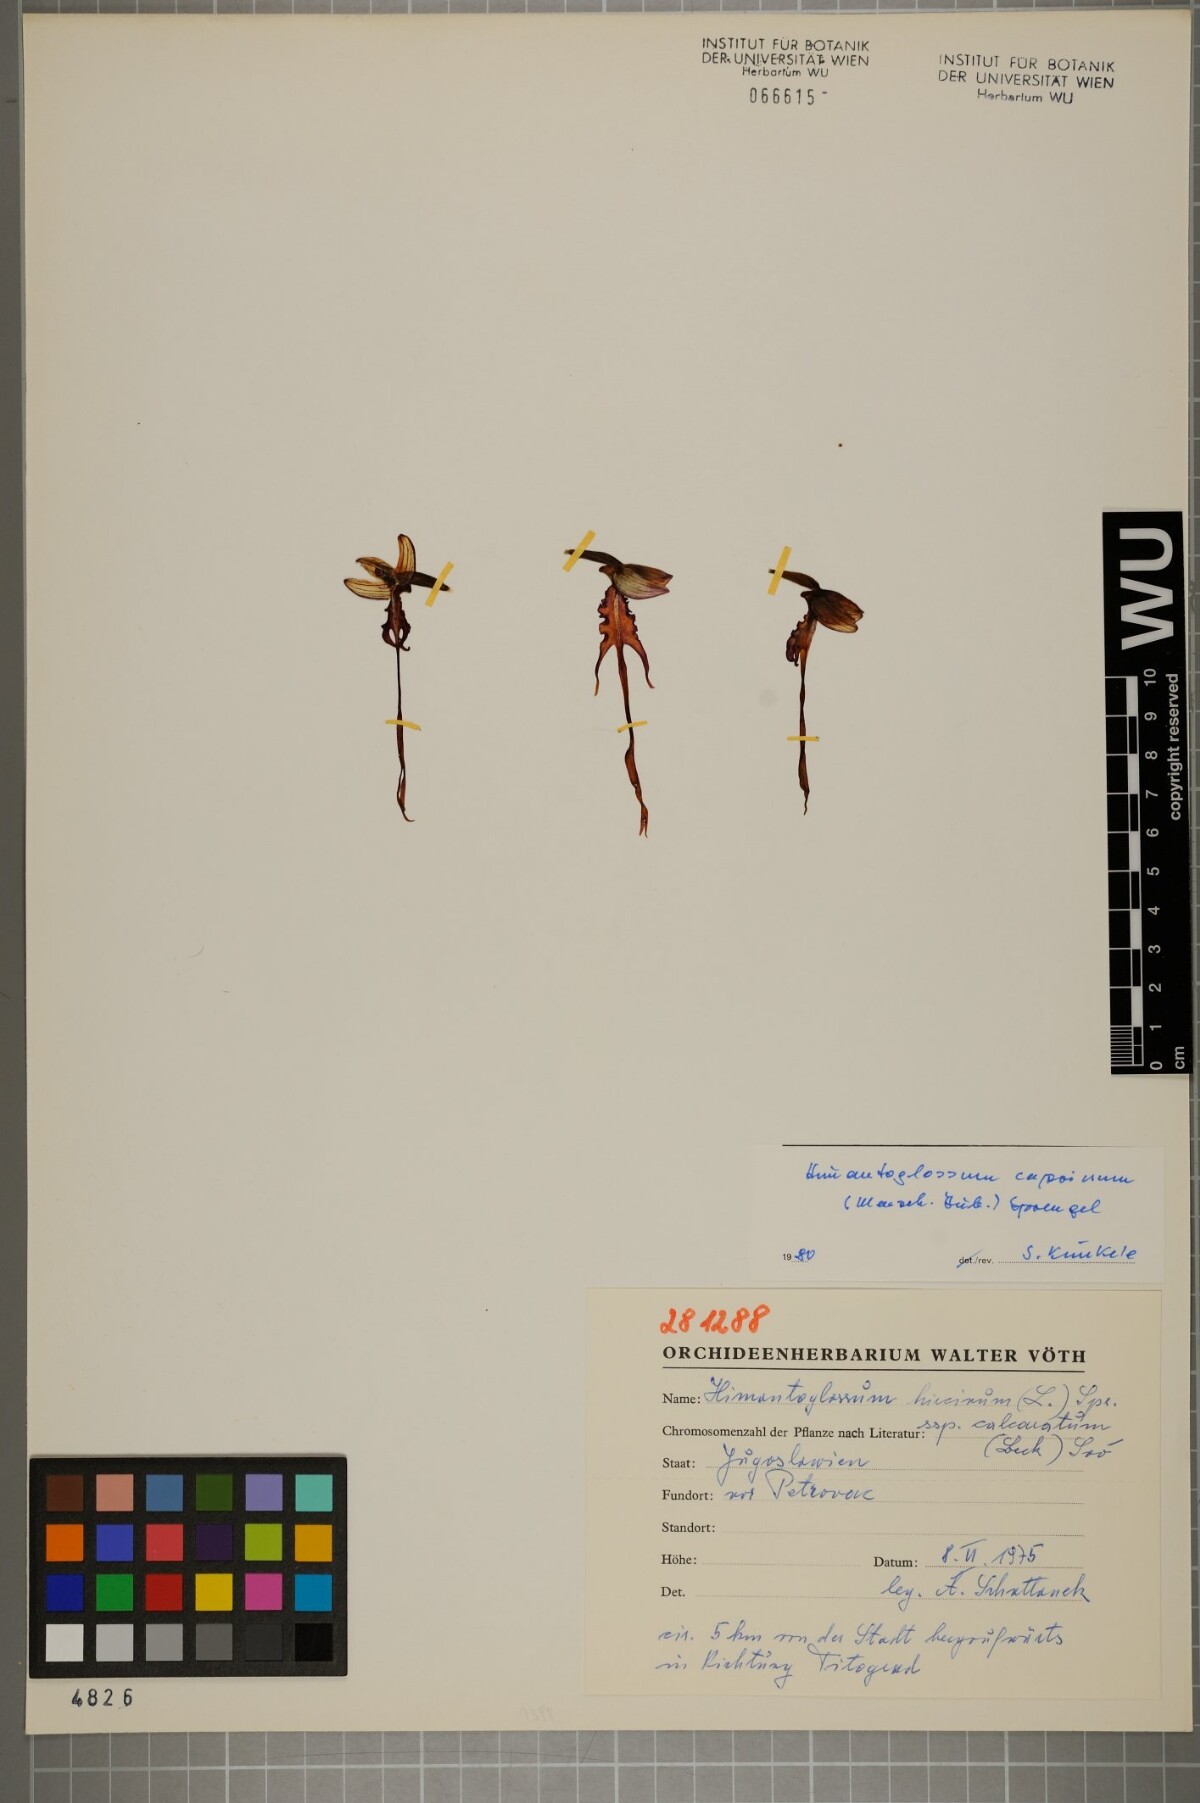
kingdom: Plantae
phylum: Tracheophyta
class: Liliopsida
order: Asparagales
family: Orchidaceae
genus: Himantoglossum
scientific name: Himantoglossum caprinum
